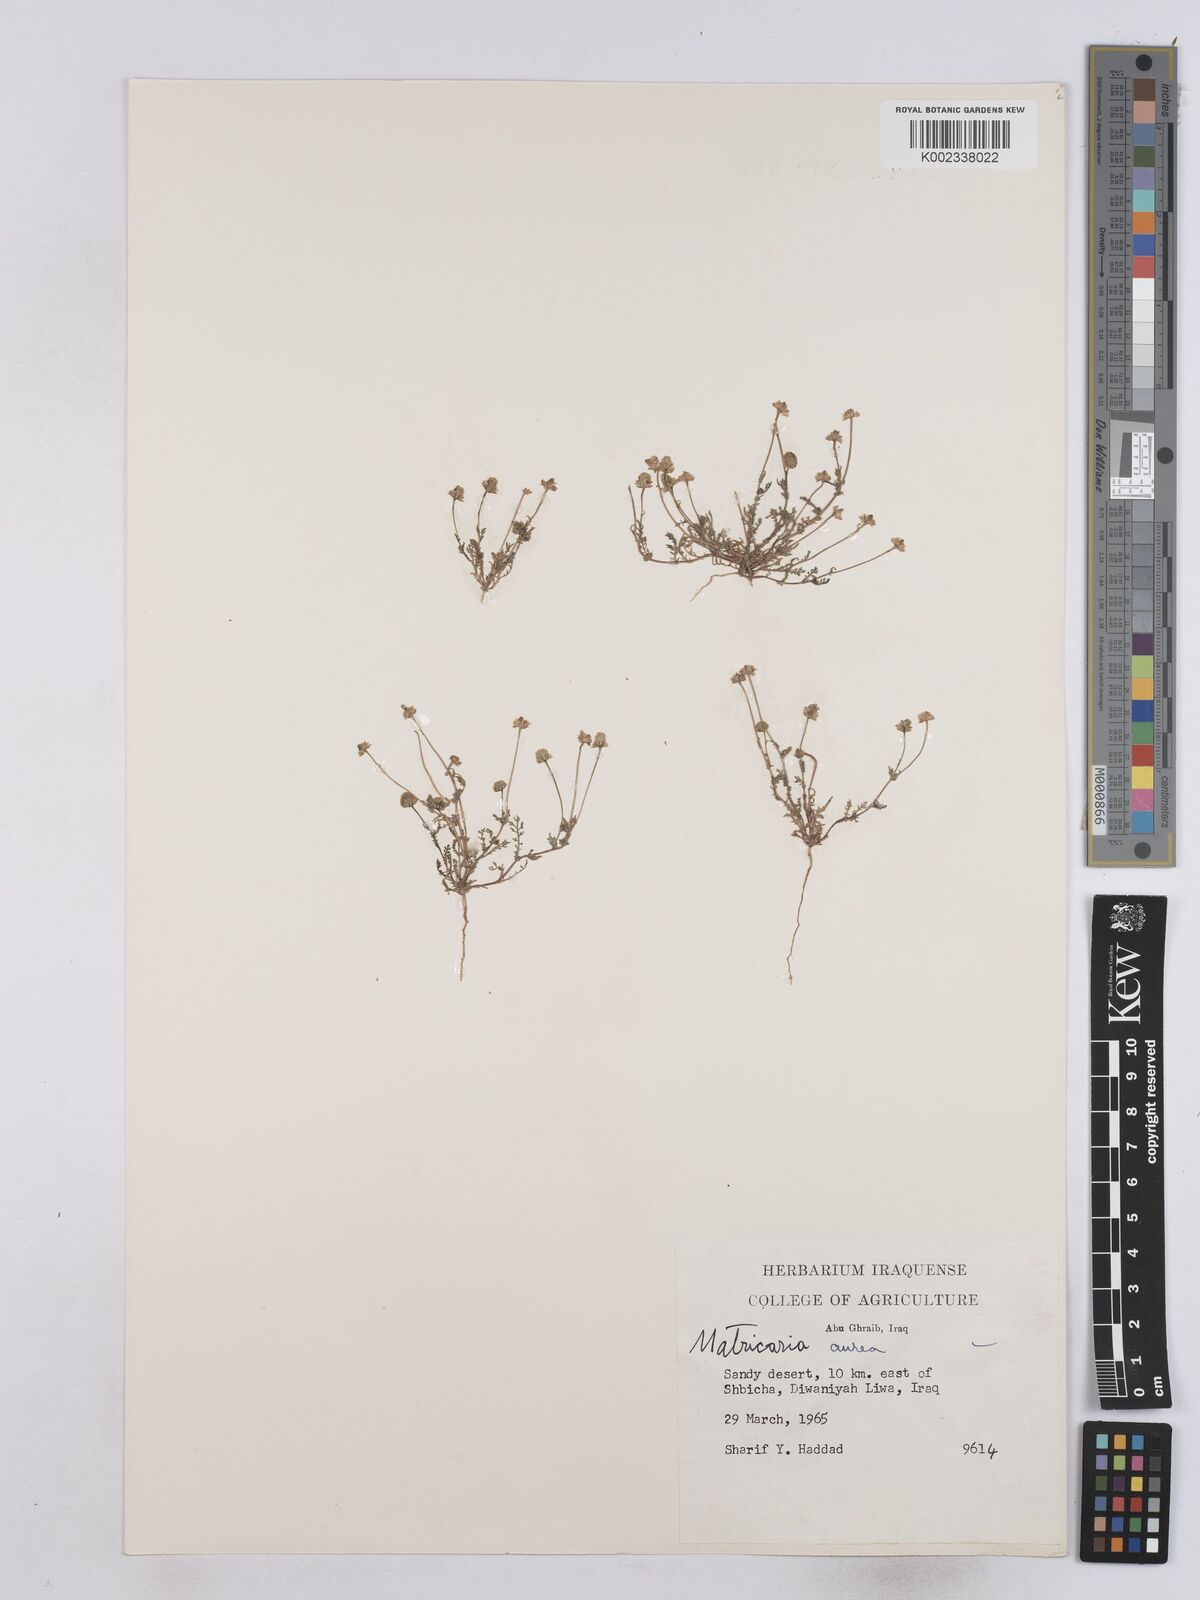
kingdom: Plantae
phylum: Tracheophyta
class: Magnoliopsida
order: Asterales
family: Asteraceae
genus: Matricaria
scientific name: Matricaria aurea
